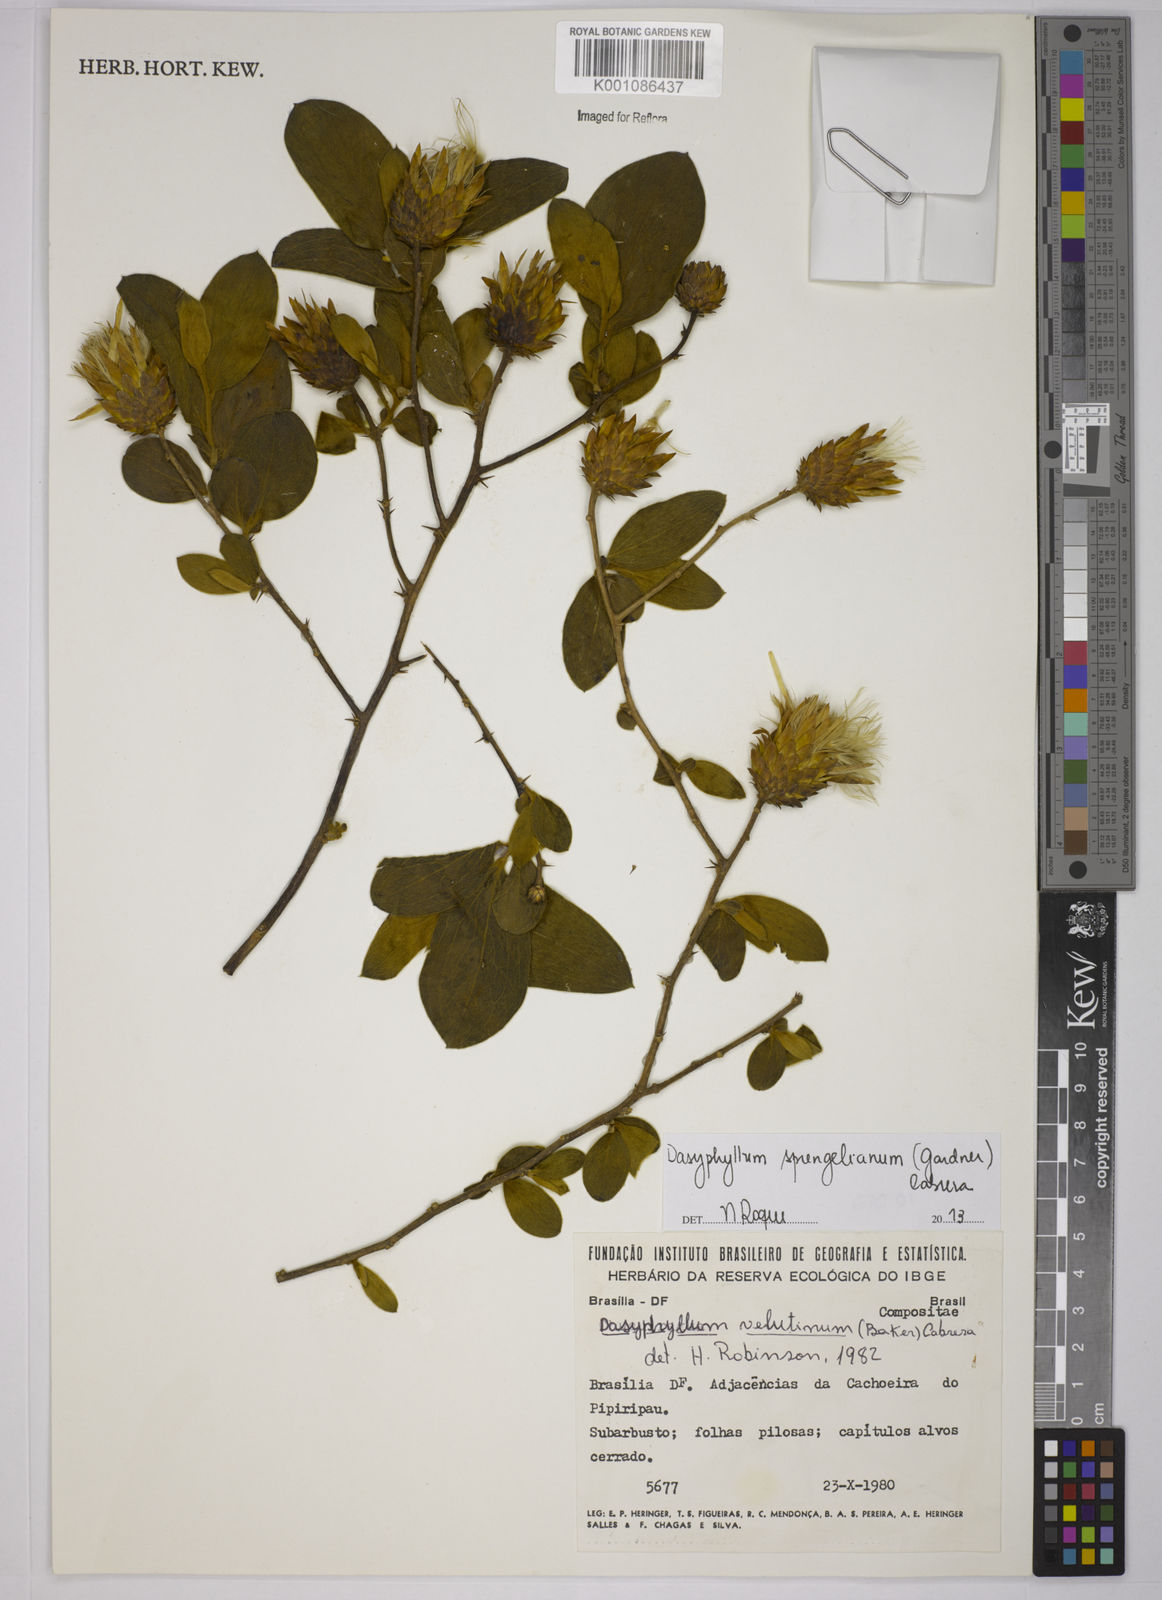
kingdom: Plantae
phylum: Tracheophyta
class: Magnoliopsida
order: Asterales
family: Asteraceae
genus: Dasyphyllum
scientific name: Dasyphyllum velutinum
